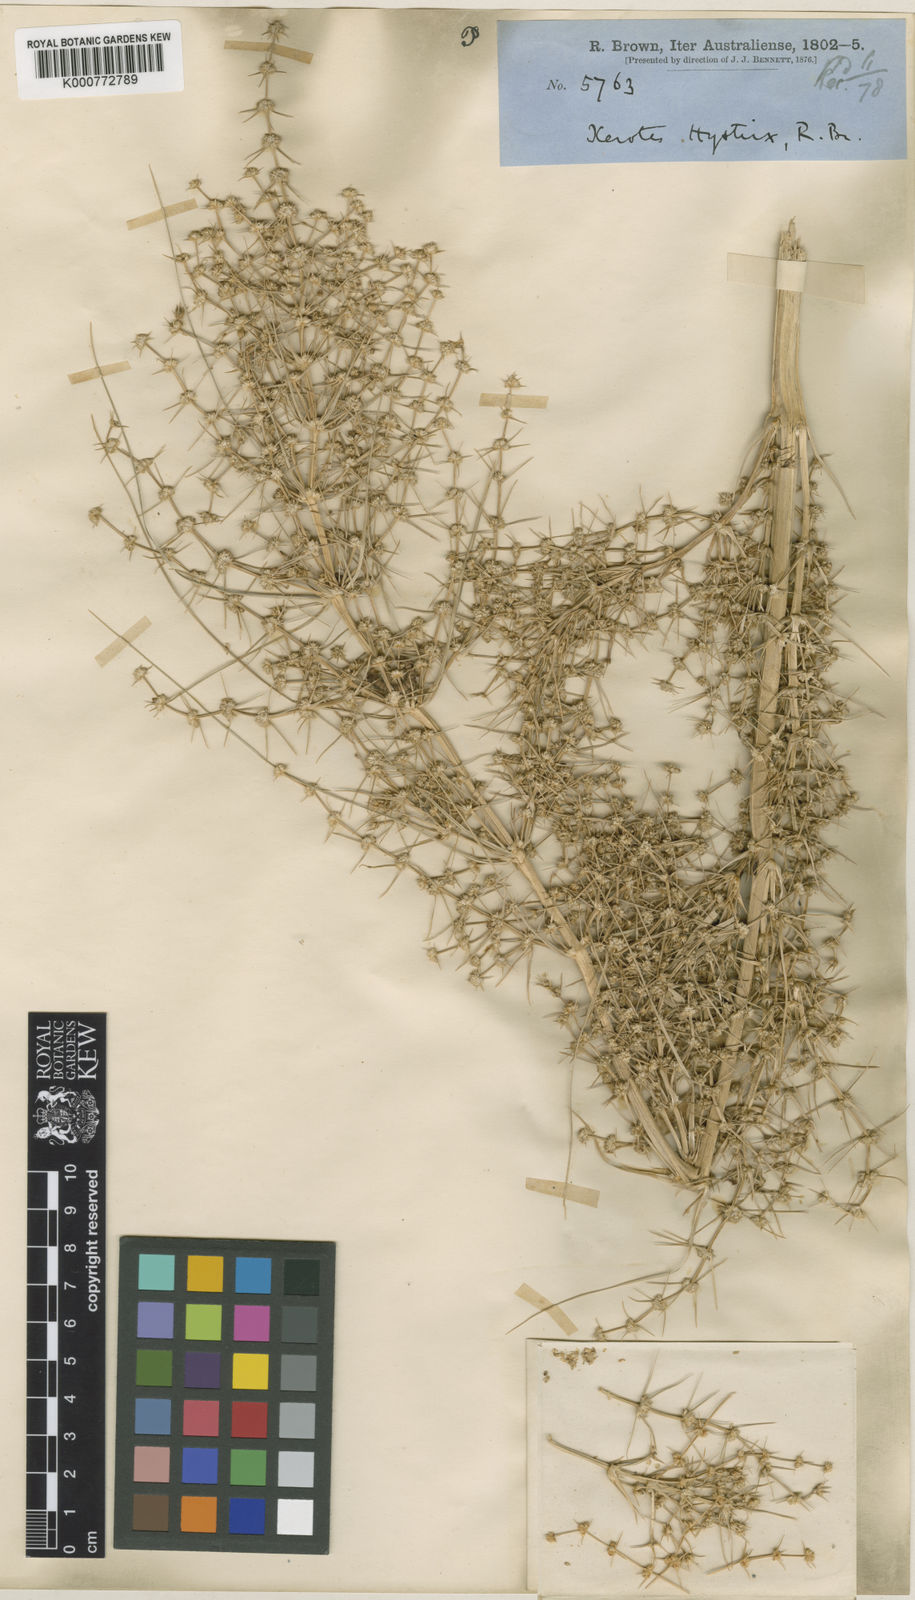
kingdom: Plantae
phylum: Tracheophyta
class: Liliopsida
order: Asparagales
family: Asparagaceae
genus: Lomandra
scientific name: Lomandra hystrix
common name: Creek mat-rush
